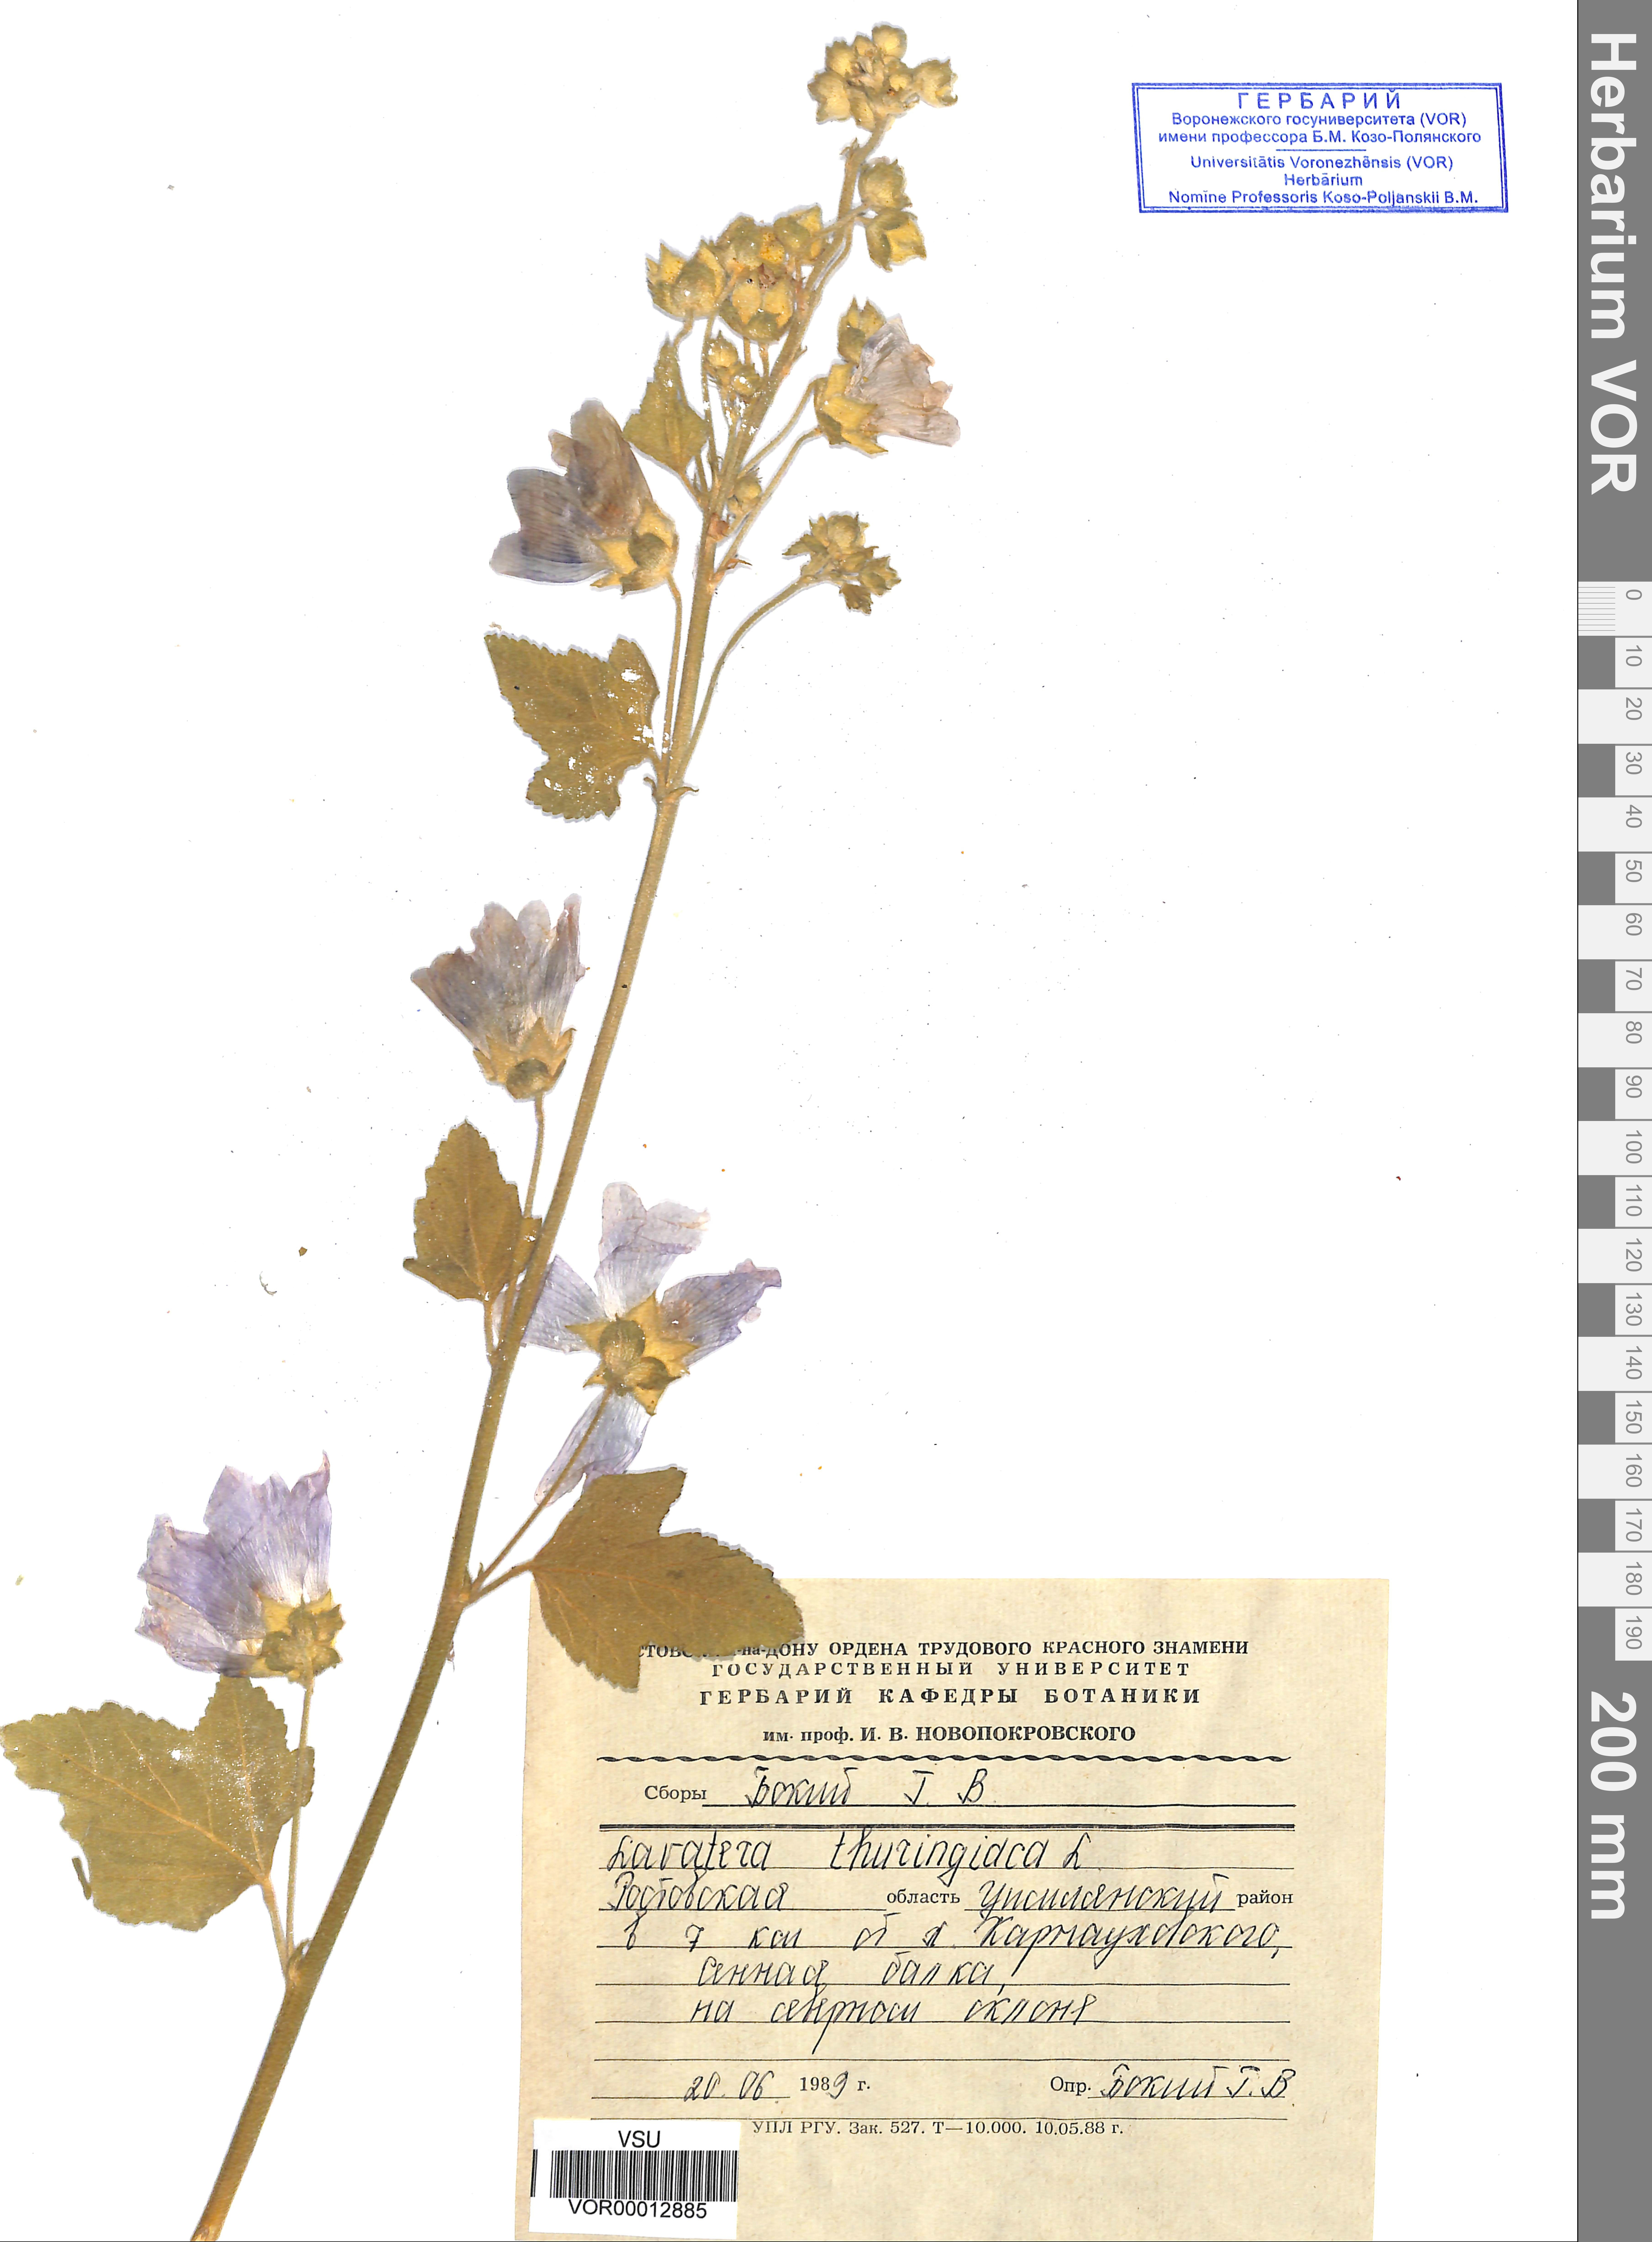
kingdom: Plantae
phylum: Tracheophyta
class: Magnoliopsida
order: Malvales
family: Malvaceae
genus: Malva
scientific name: Malva thuringiaca
